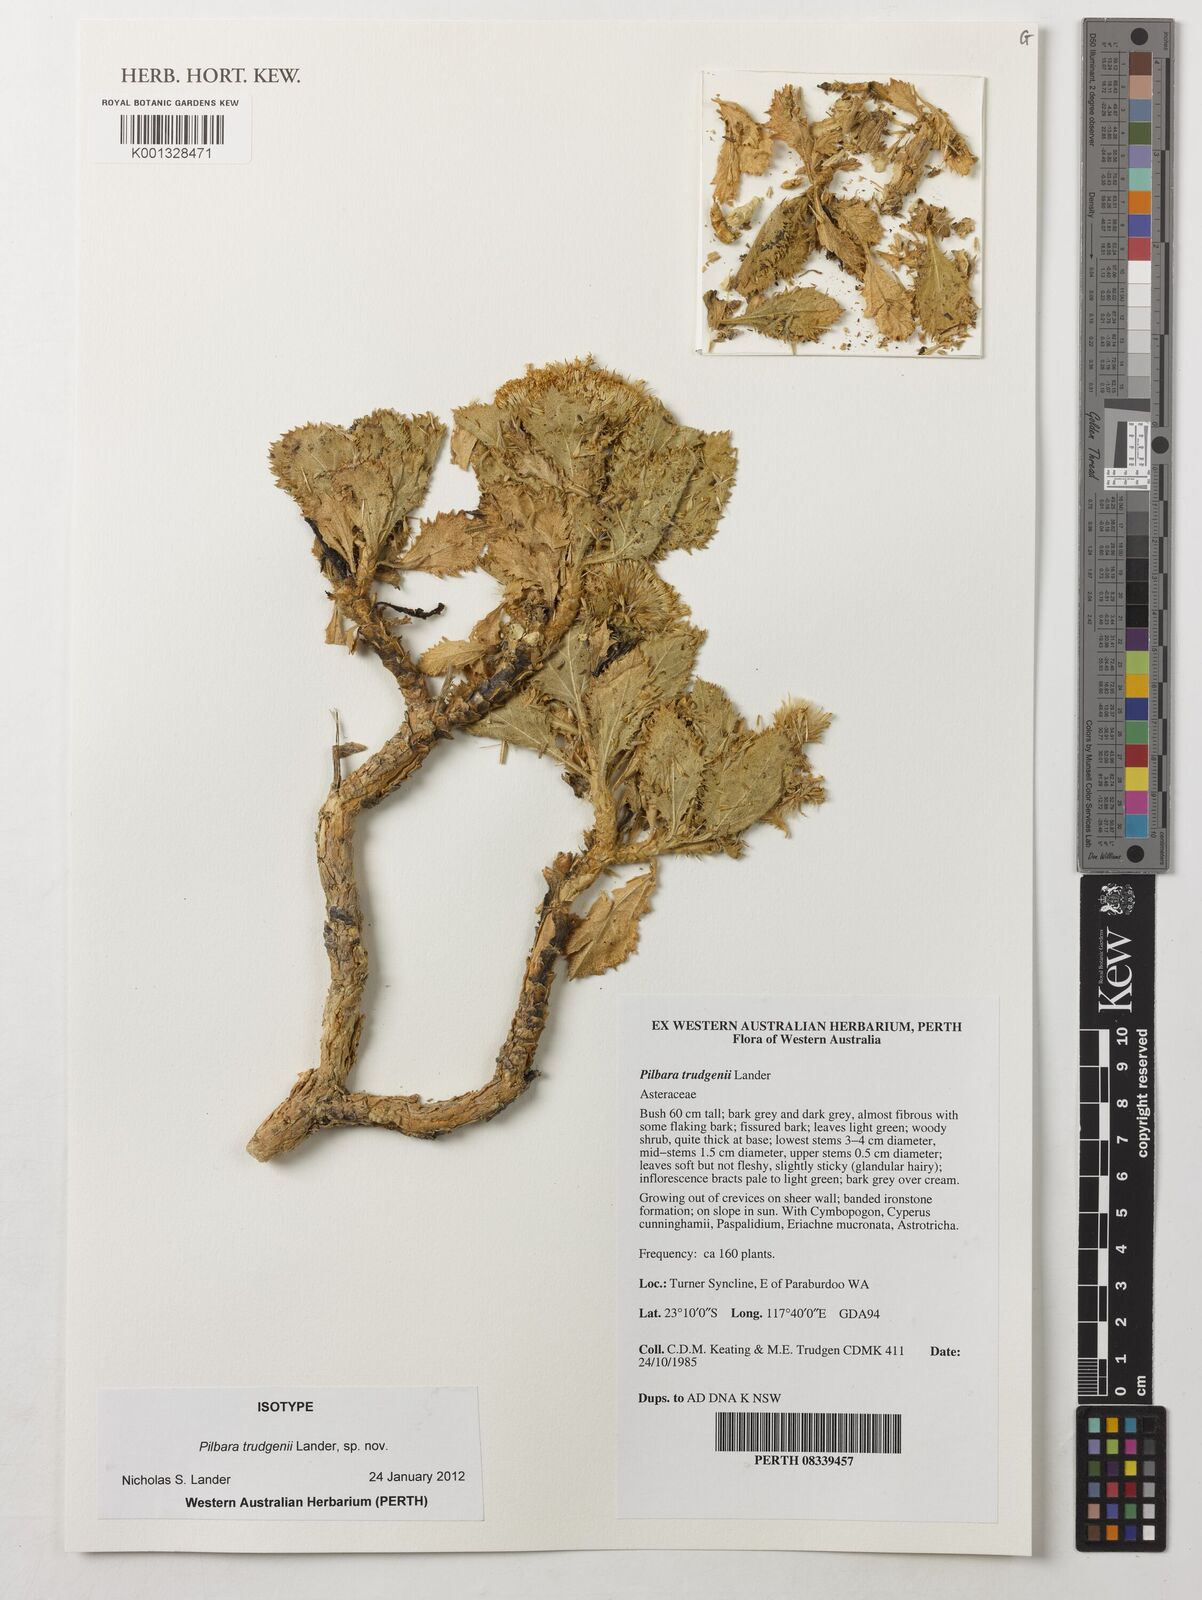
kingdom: Plantae
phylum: Tracheophyta
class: Magnoliopsida
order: Asterales
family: Asteraceae
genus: Pilbara
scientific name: Pilbara trudgenii
